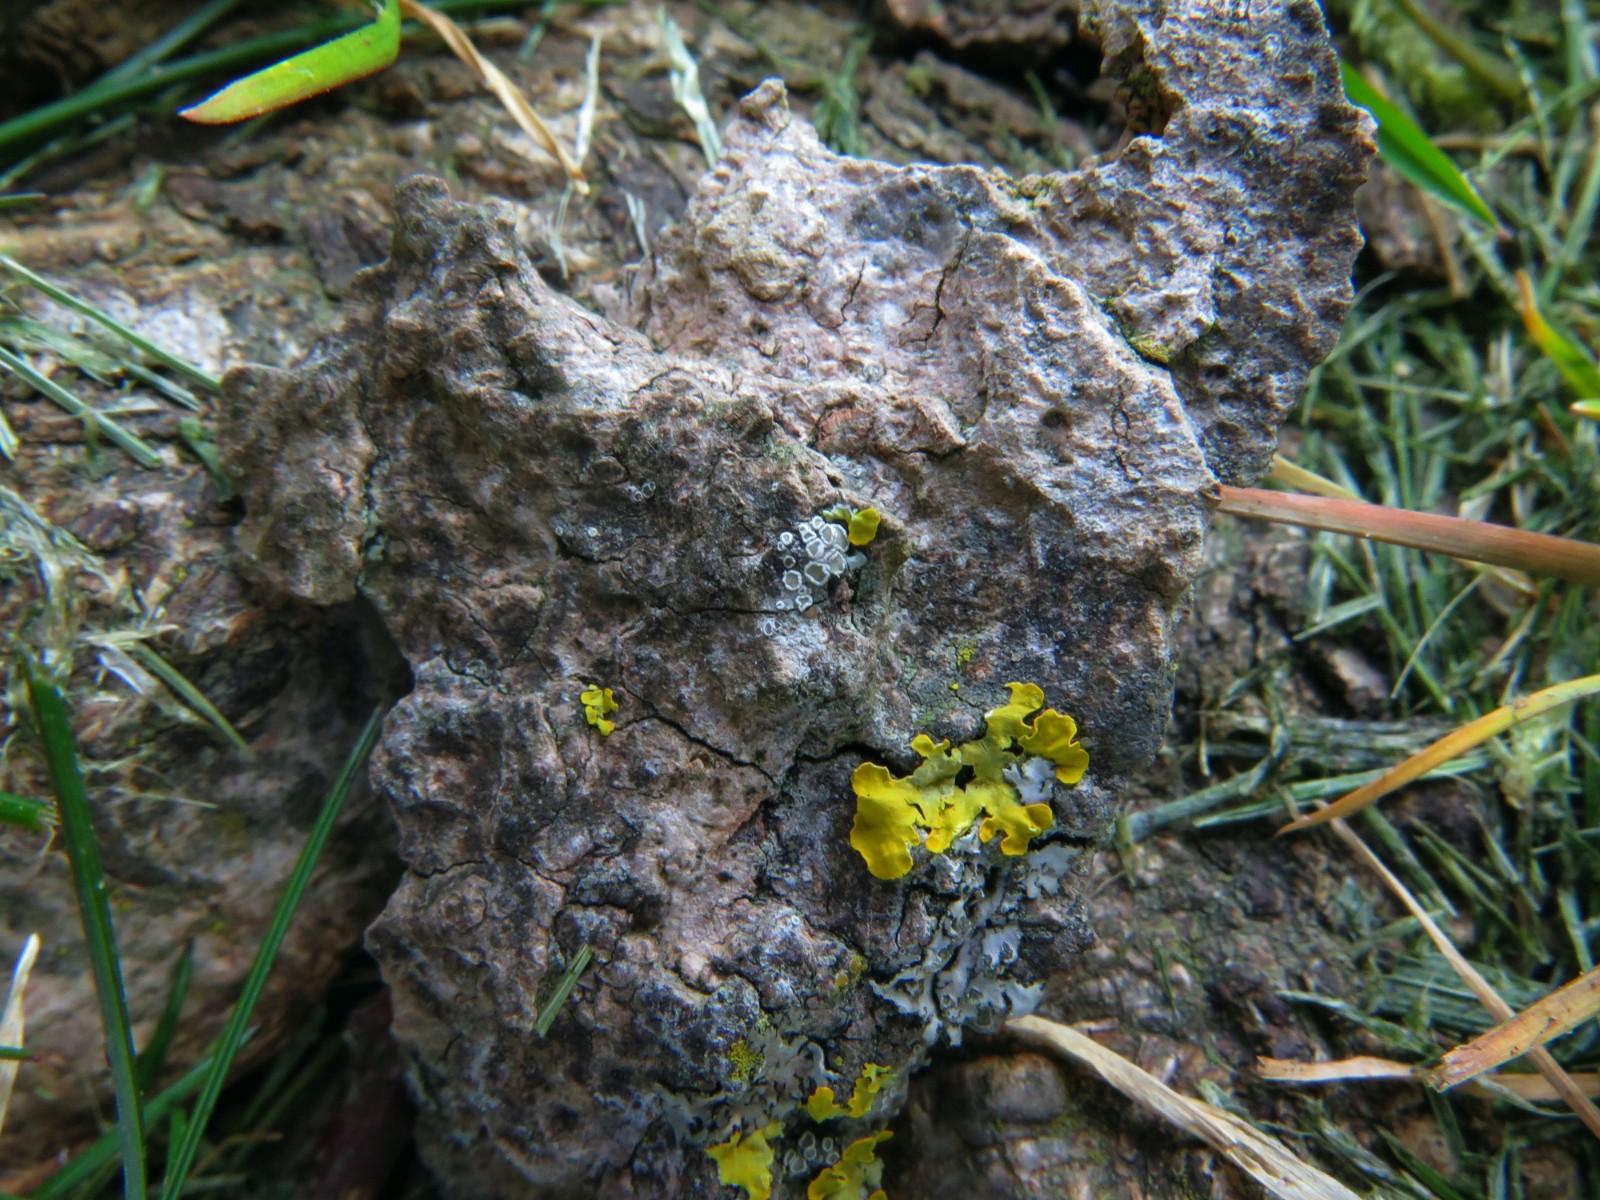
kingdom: Fungi
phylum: Ascomycota
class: Lecanoromycetes
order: Lecanorales
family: Lecanoraceae
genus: Polyozosia
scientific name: Polyozosia dispersa
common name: spredt kantskivelav
